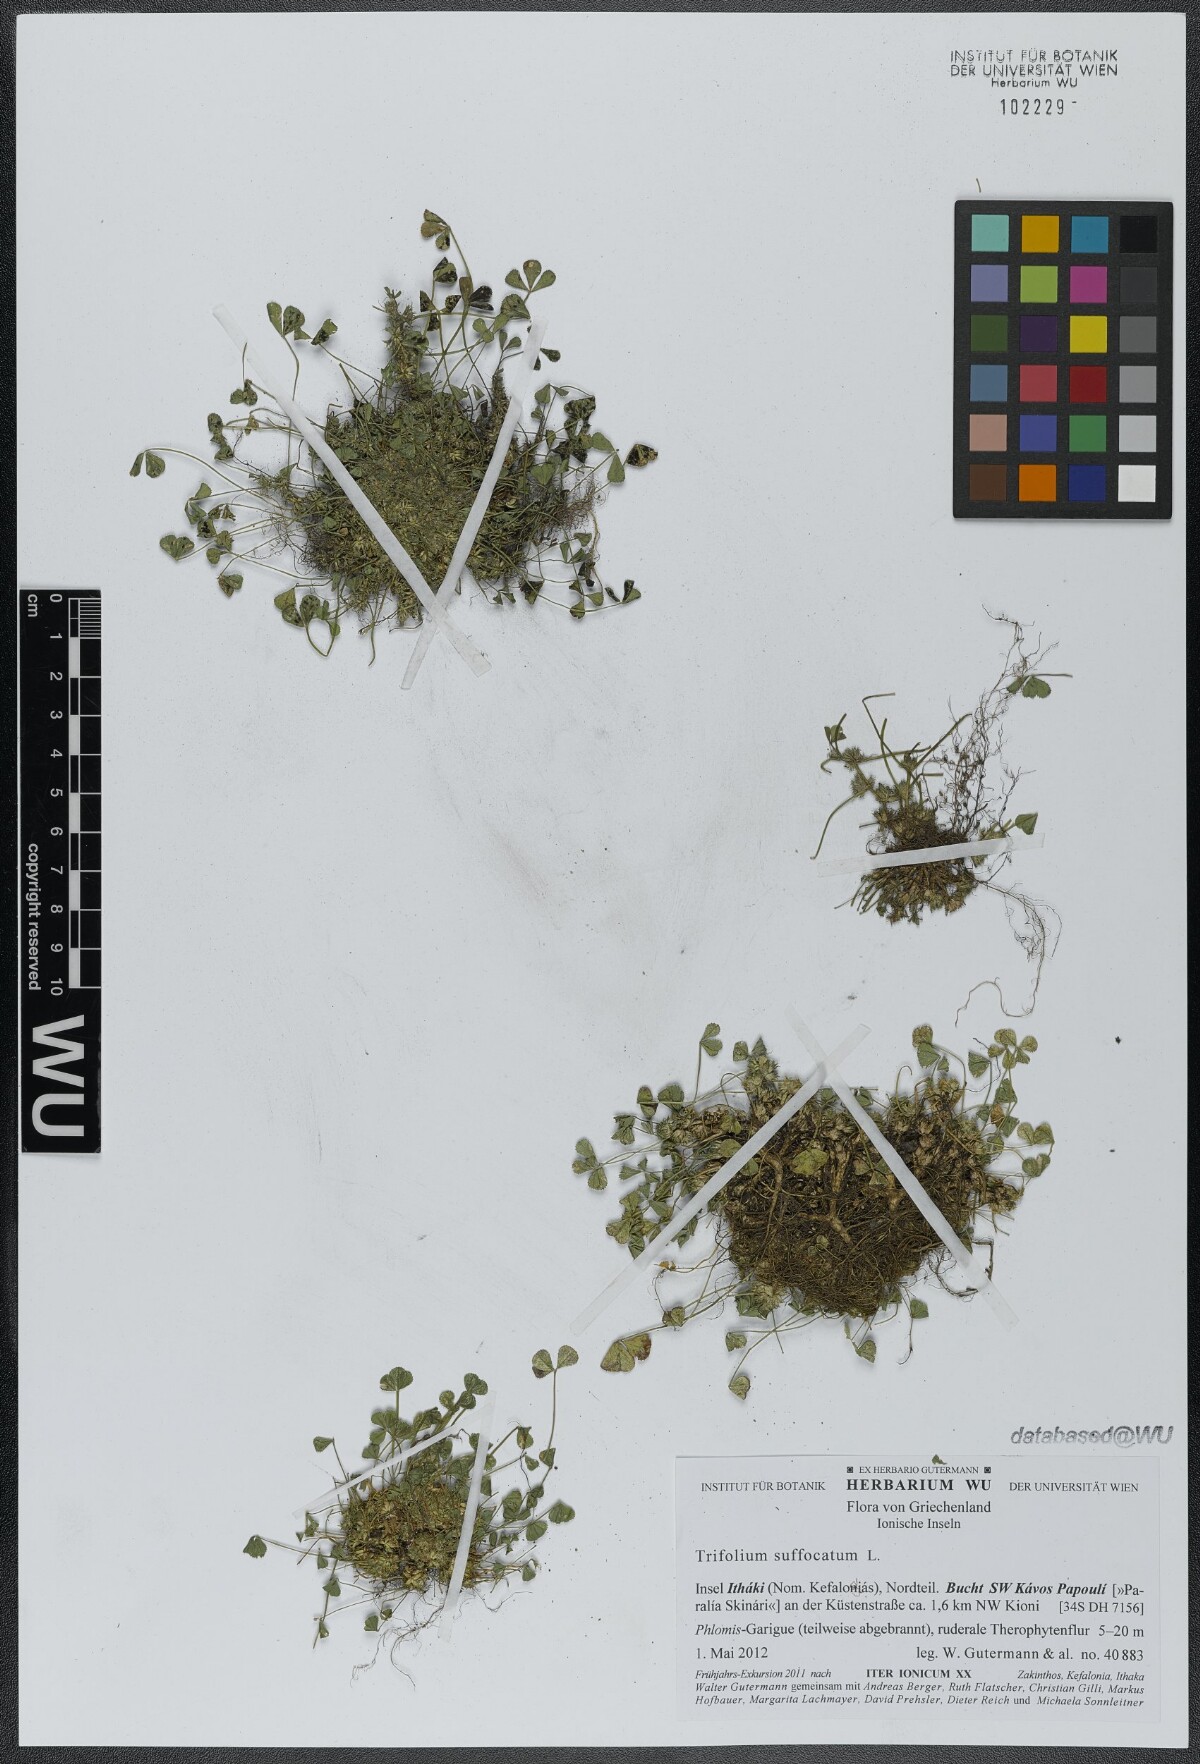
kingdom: Plantae
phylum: Tracheophyta
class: Magnoliopsida
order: Fabales
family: Fabaceae
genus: Trifolium
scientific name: Trifolium suffocatum
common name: Suffocated clover
